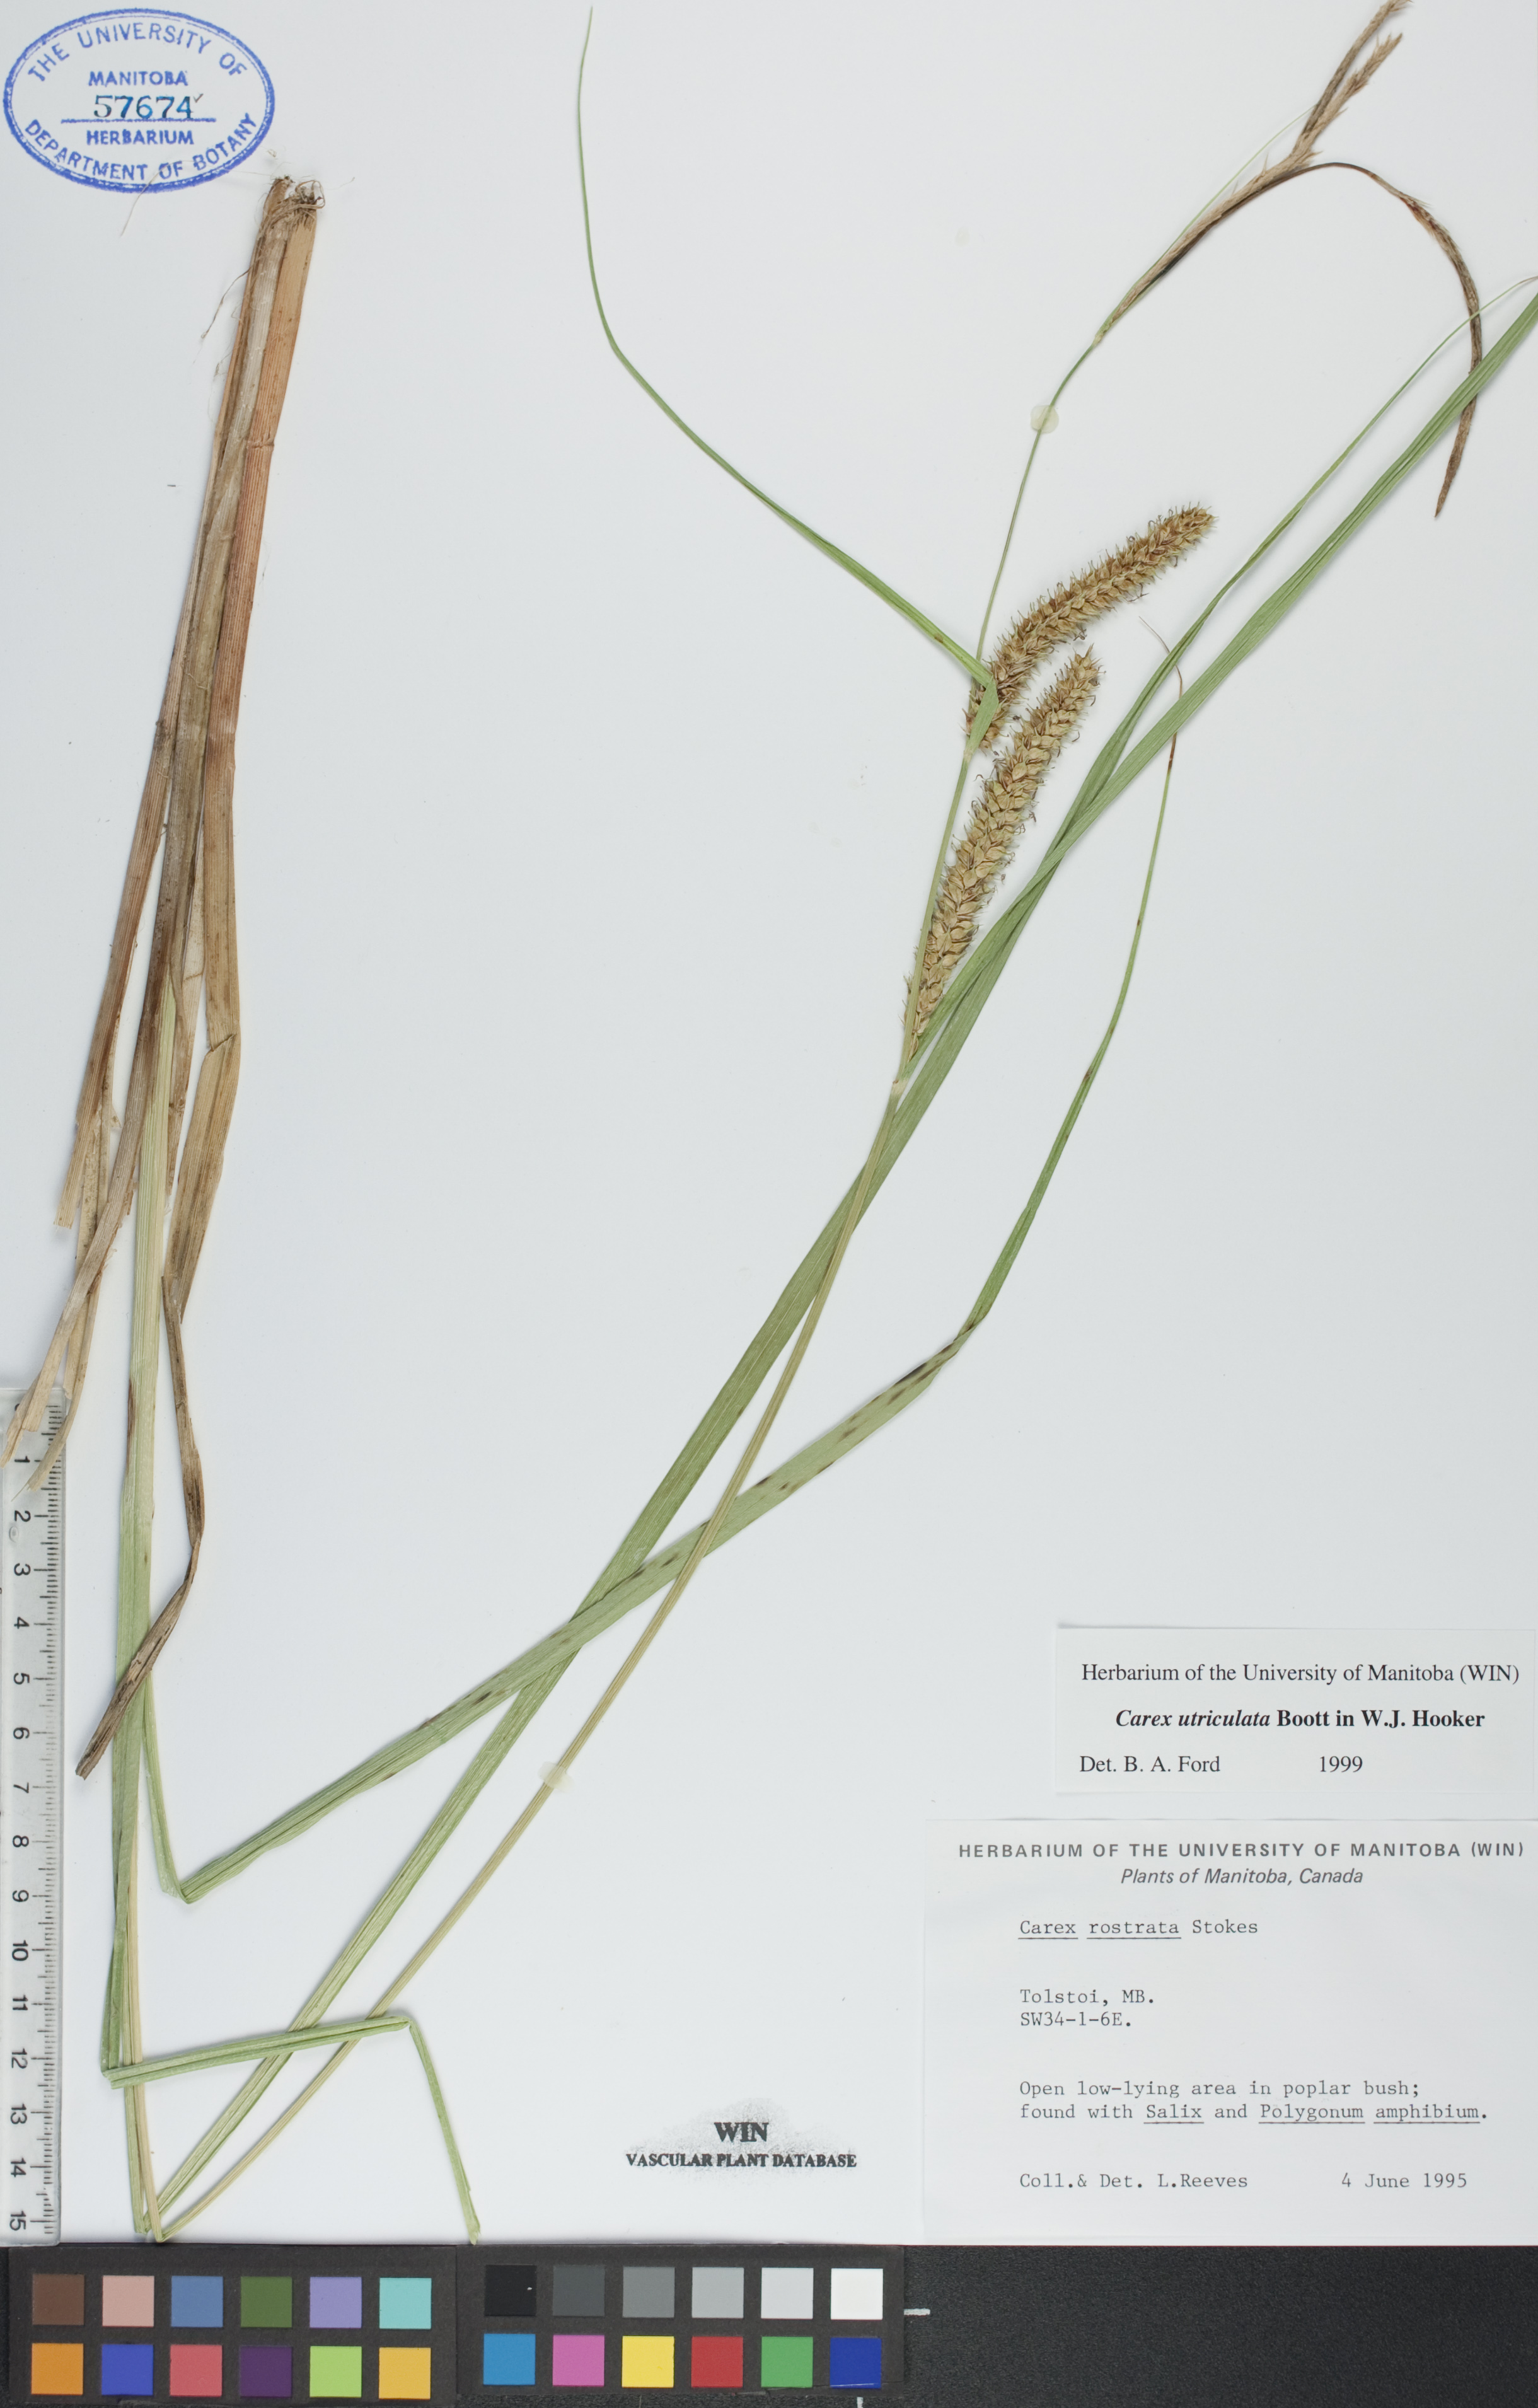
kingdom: Plantae
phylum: Tracheophyta
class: Liliopsida
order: Poales
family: Cyperaceae
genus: Carex
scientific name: Carex utriculata
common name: Beaked sedge
